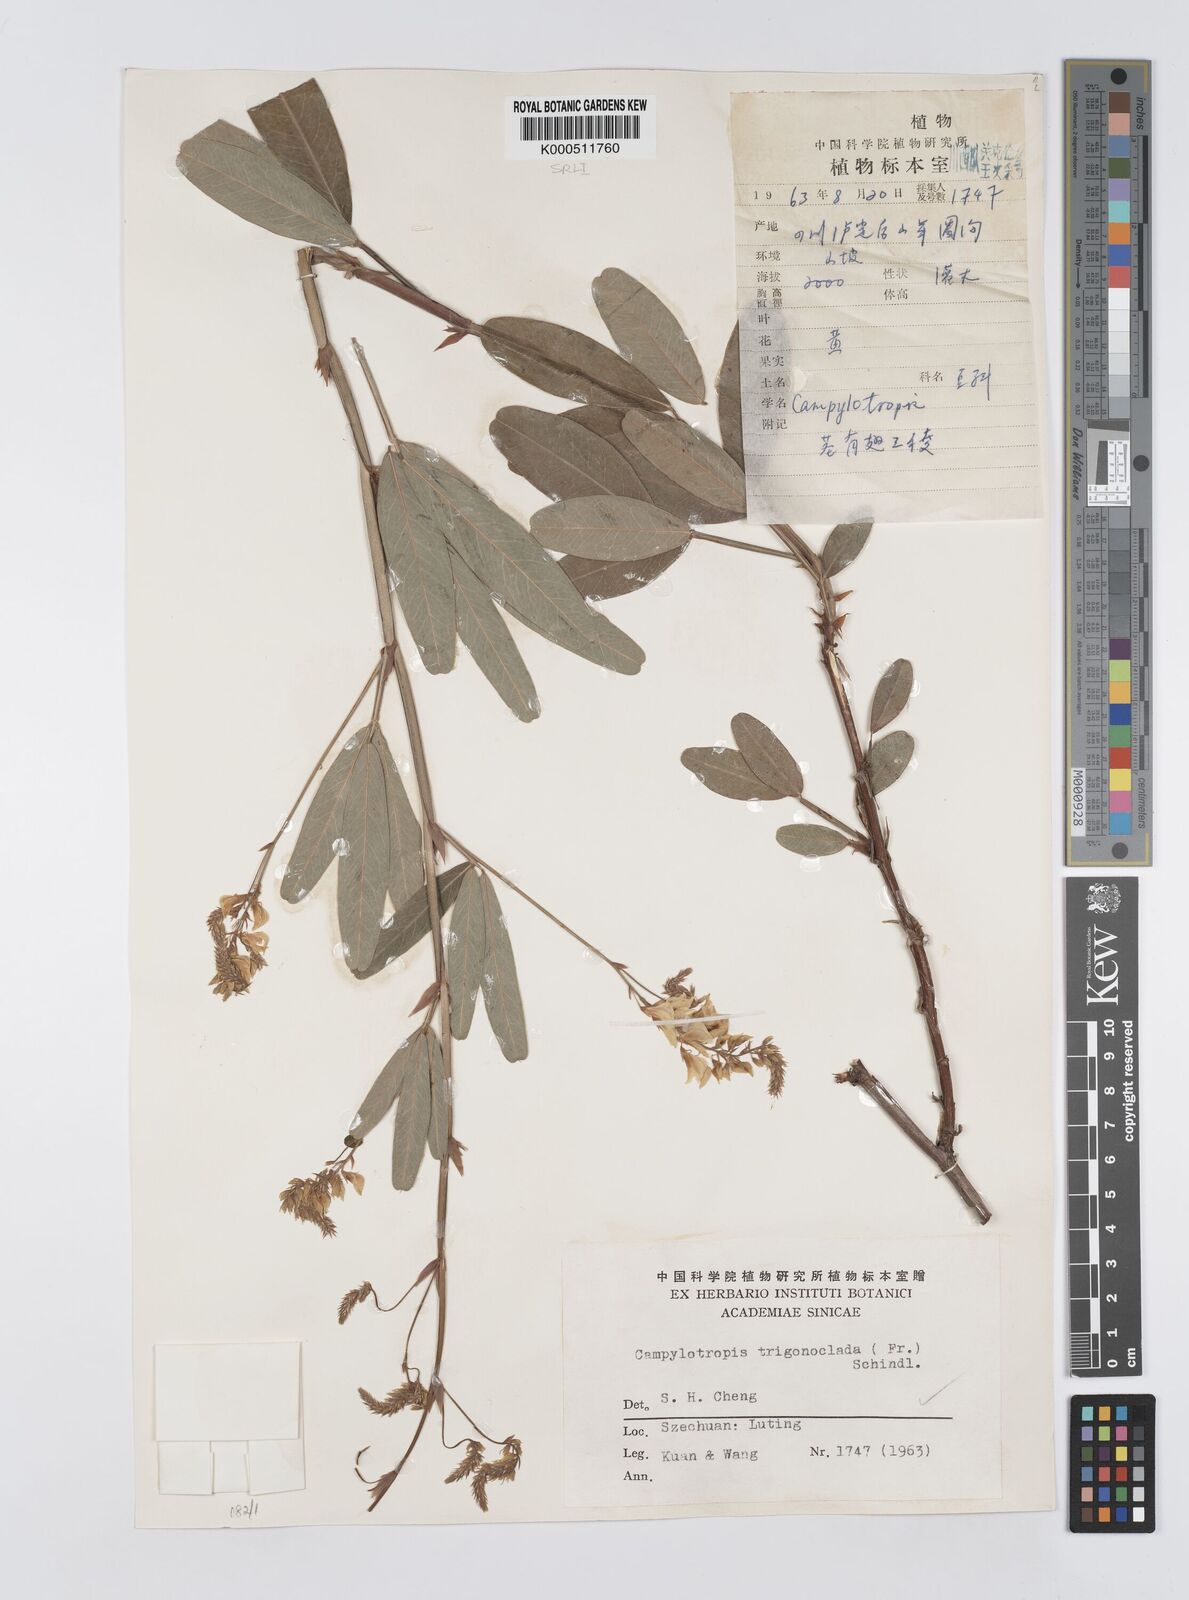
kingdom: Plantae
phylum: Tracheophyta
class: Magnoliopsida
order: Fabales
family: Fabaceae
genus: Campylotropis
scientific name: Campylotropis trigonoclada
